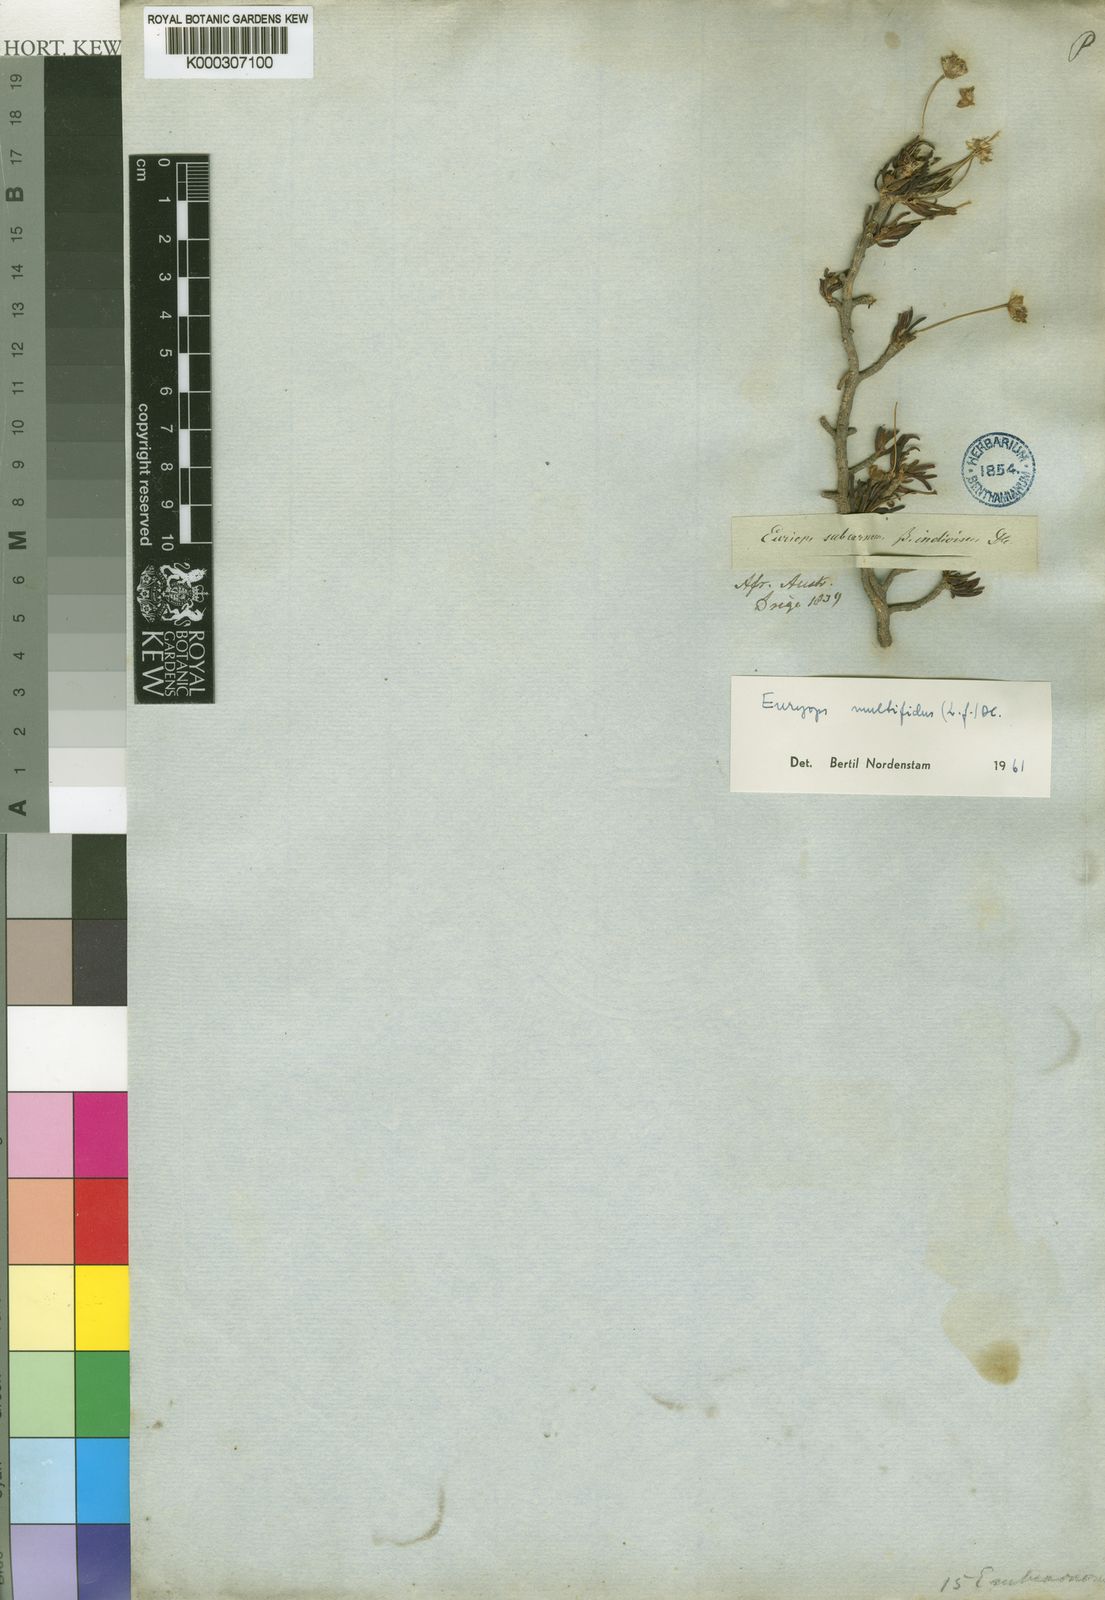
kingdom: Plantae
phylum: Tracheophyta
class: Magnoliopsida
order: Asterales
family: Asteraceae
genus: Euryops
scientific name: Euryops multifidus
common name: Hawk's eye
